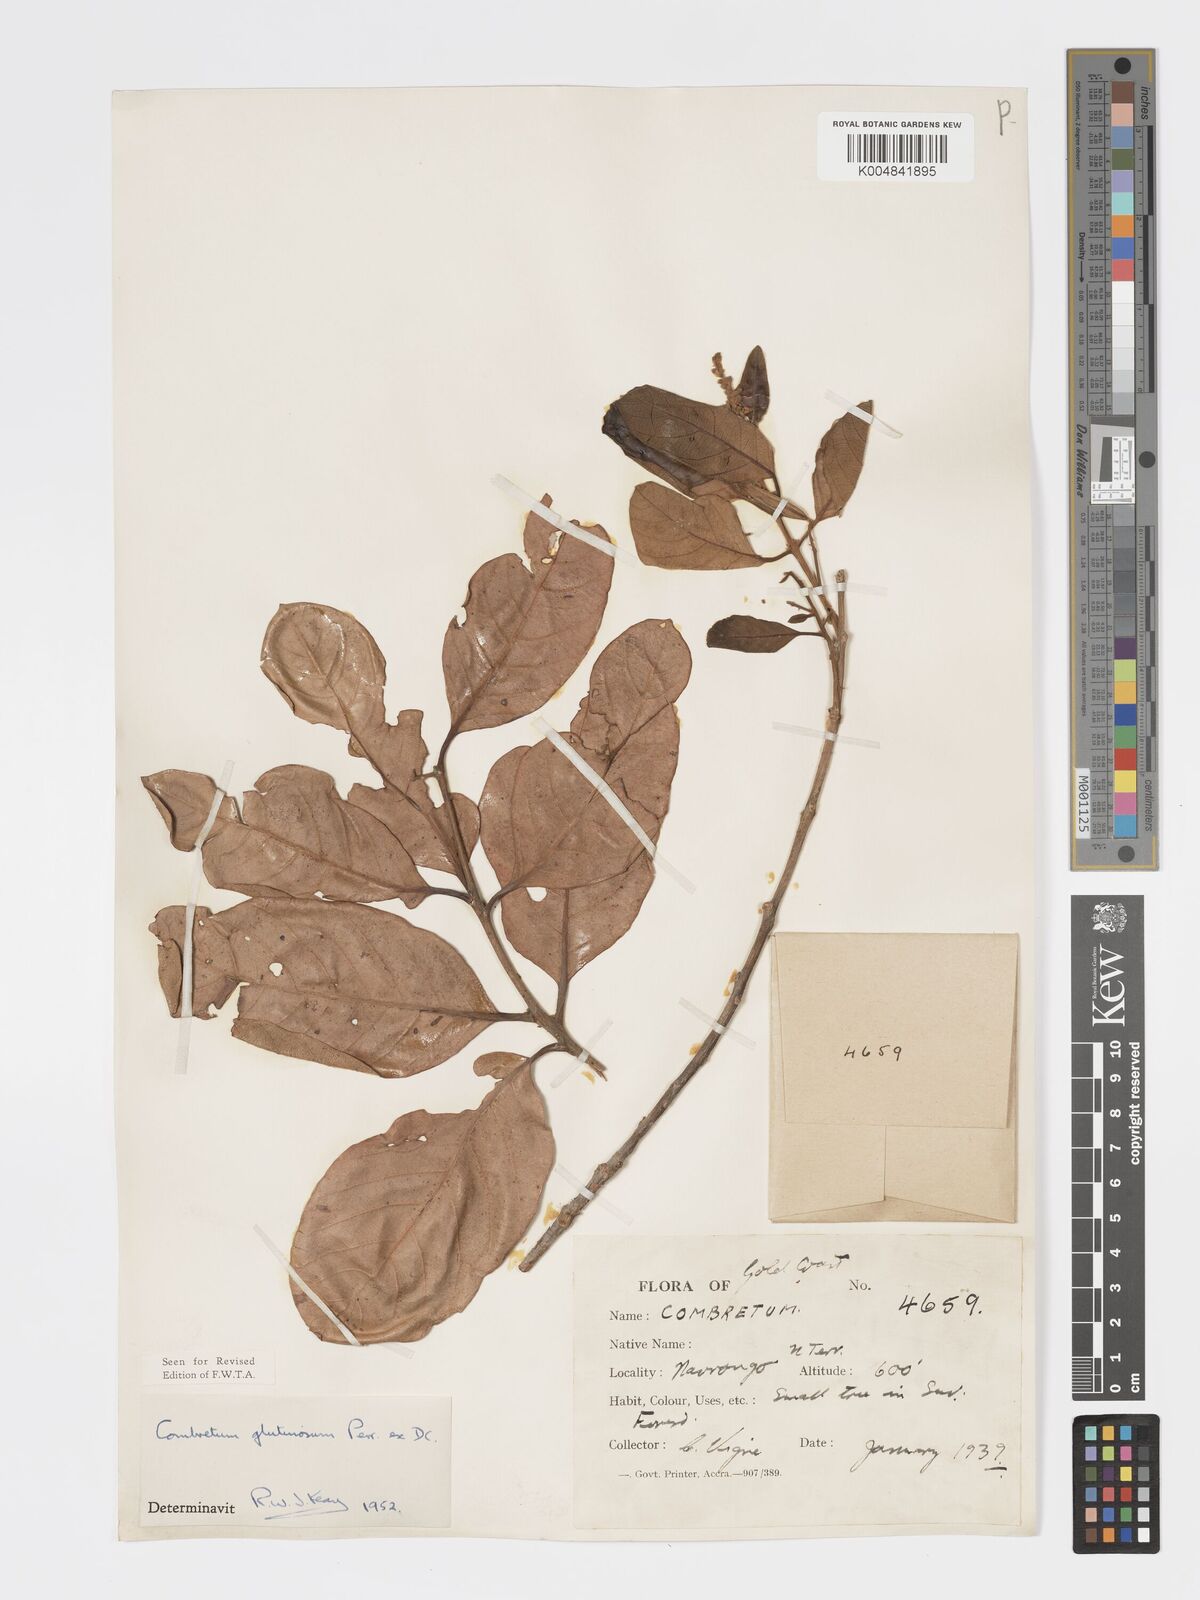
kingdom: Plantae
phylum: Tracheophyta
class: Magnoliopsida
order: Myrtales
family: Combretaceae
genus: Combretum
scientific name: Combretum
